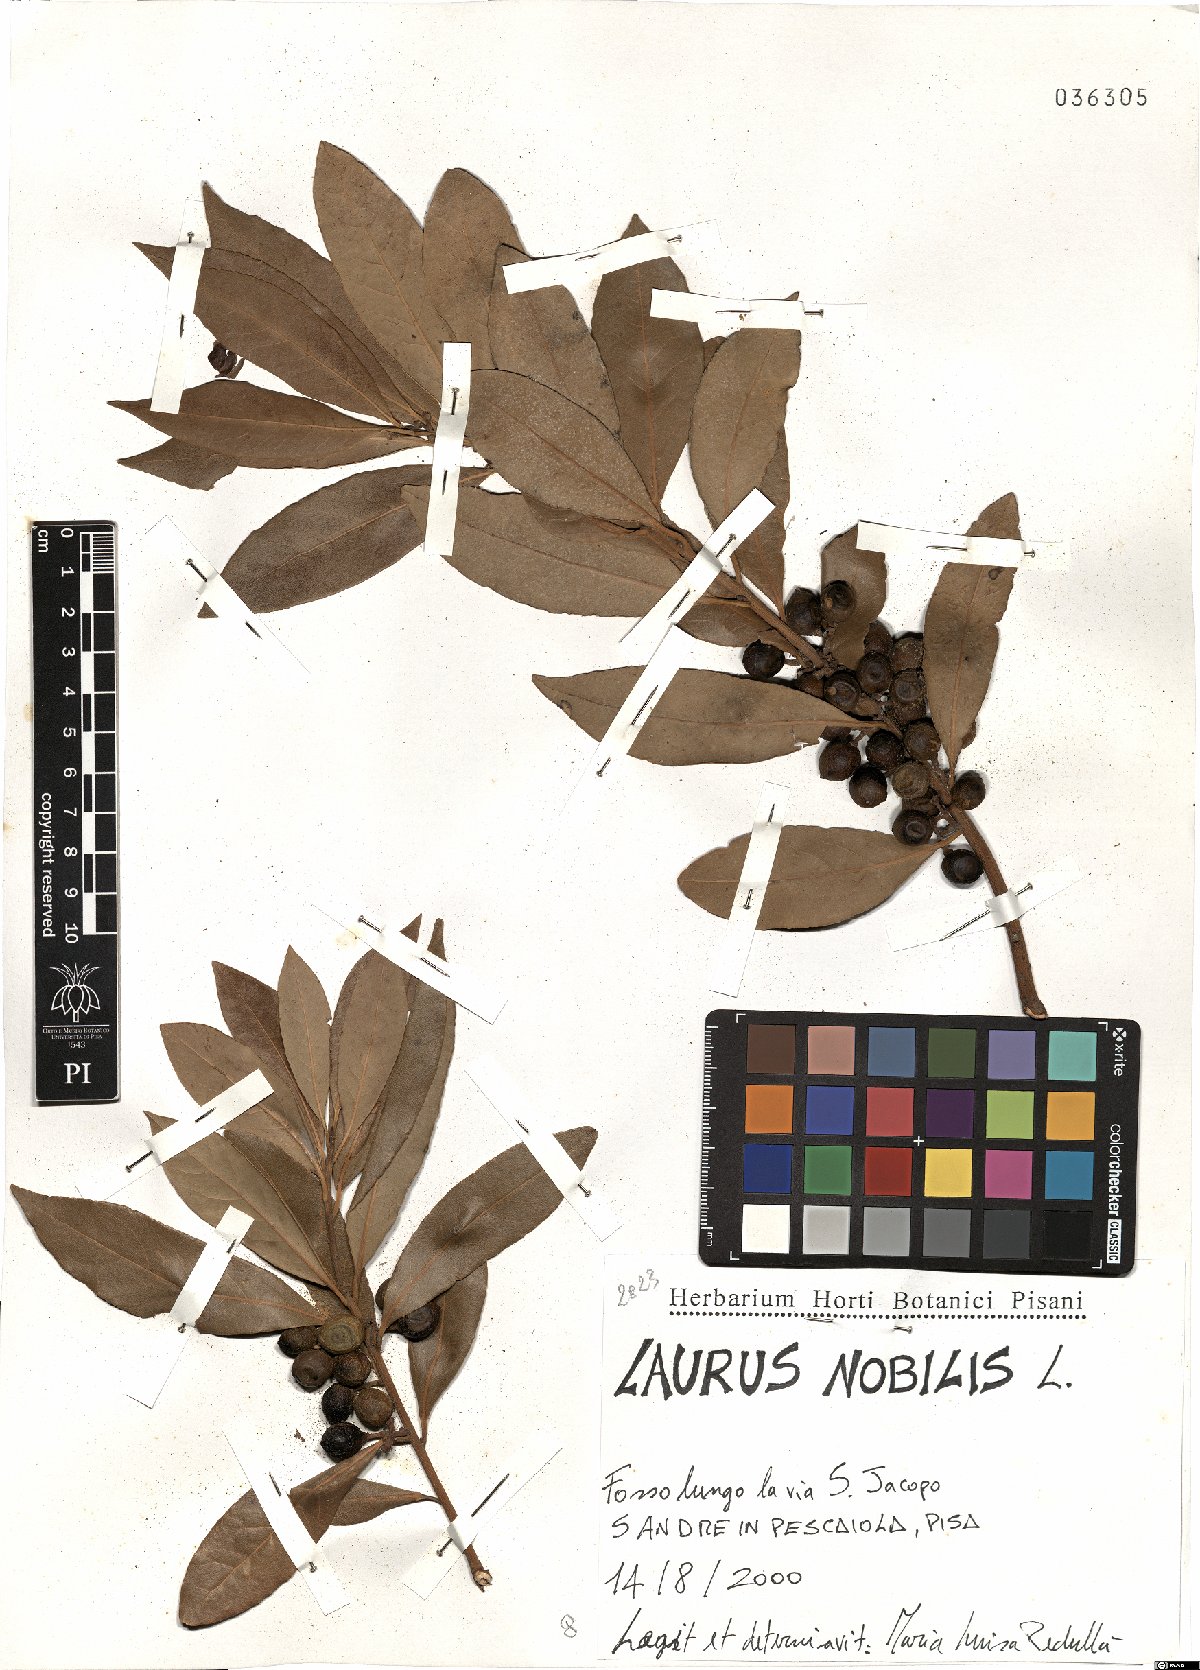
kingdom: Plantae
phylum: Tracheophyta
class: Magnoliopsida
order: Laurales
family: Lauraceae
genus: Laurus
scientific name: Laurus nobilis
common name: Bay
